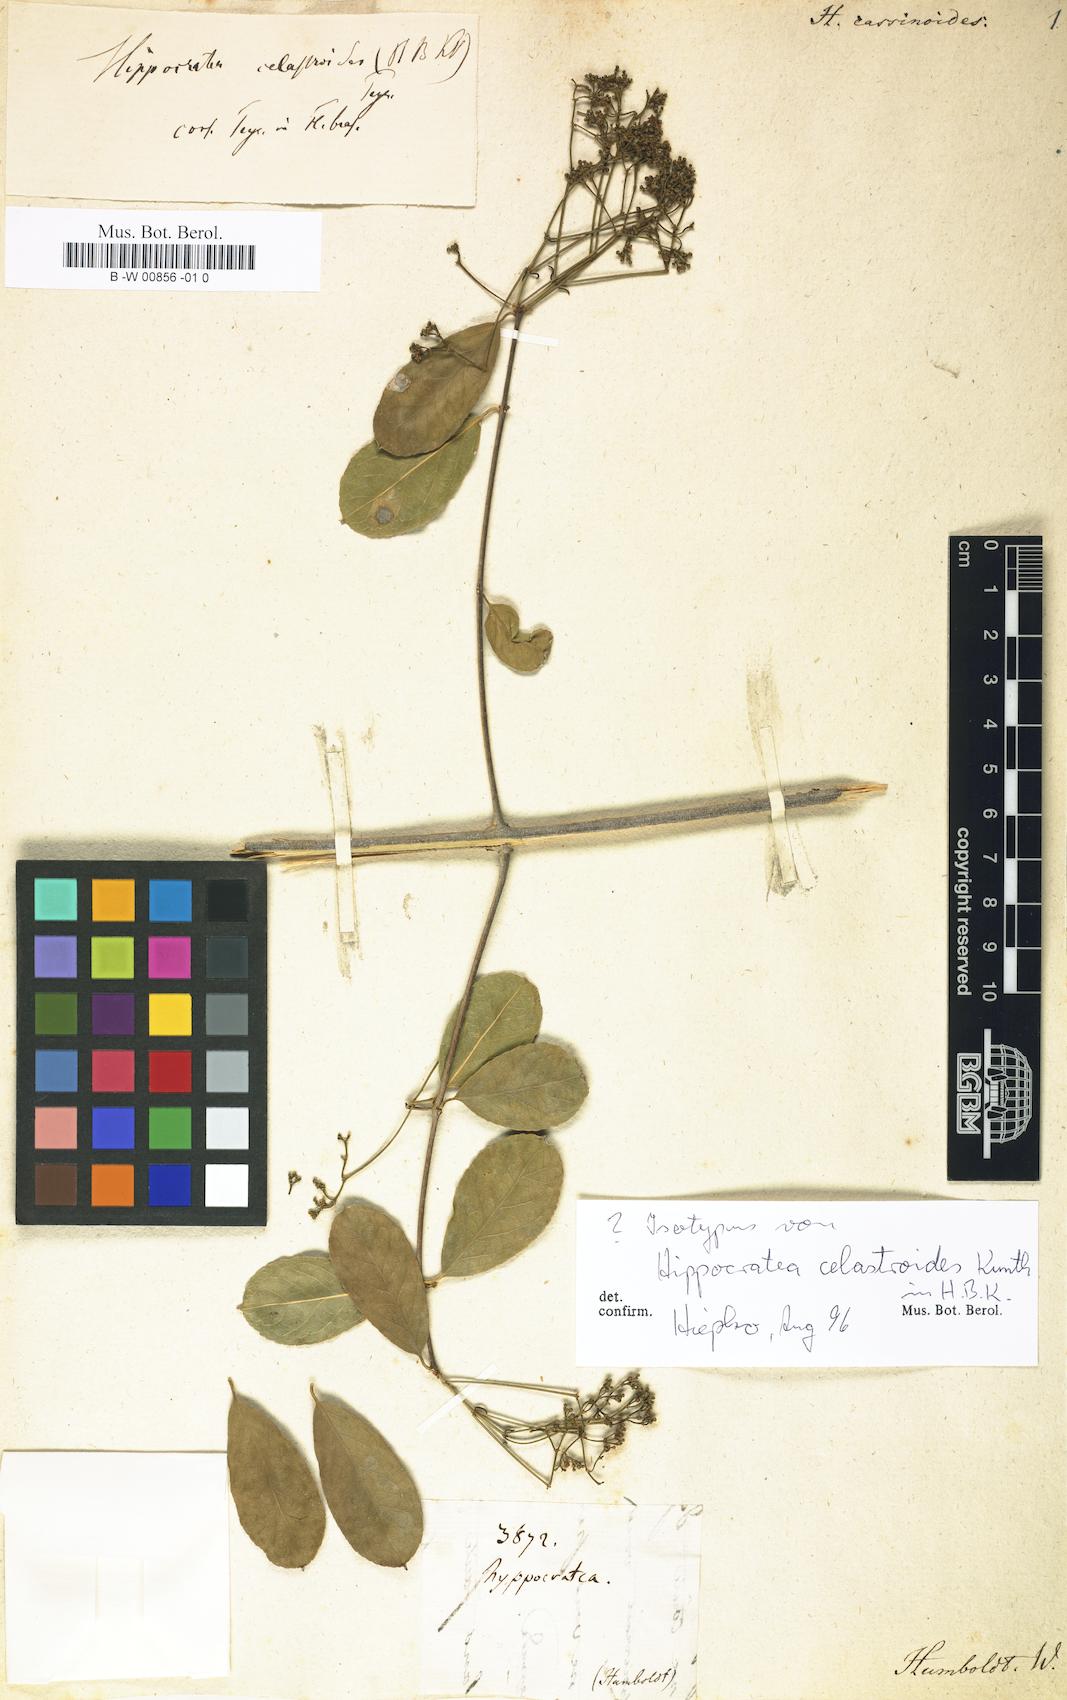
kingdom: Plantae
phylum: Tracheophyta
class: Magnoliopsida
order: Celastrales
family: Celastraceae
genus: Reissantia
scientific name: Reissantia cassinoides
